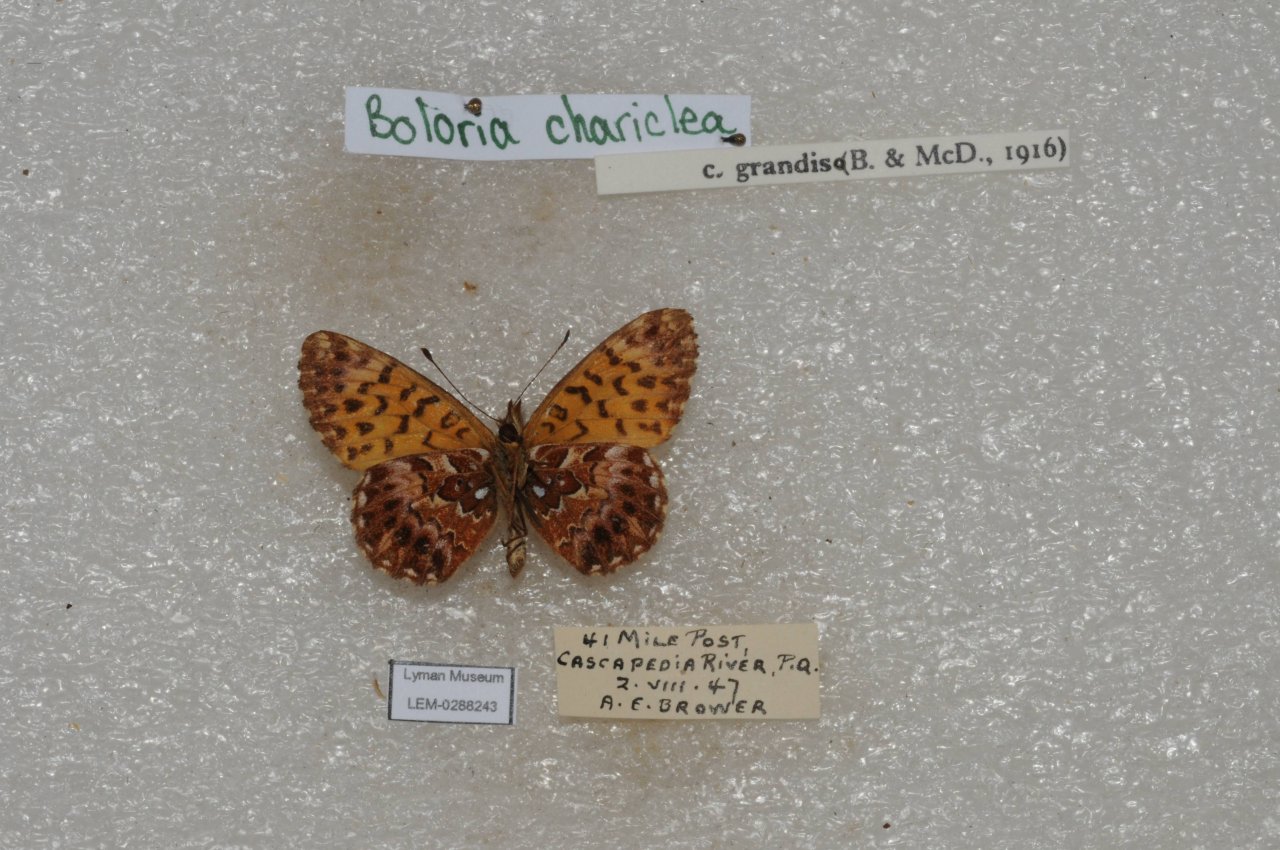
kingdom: Animalia
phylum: Arthropoda
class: Insecta
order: Lepidoptera
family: Nymphalidae
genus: Boloria
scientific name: Boloria chariclea
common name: Arctic Fritillary
